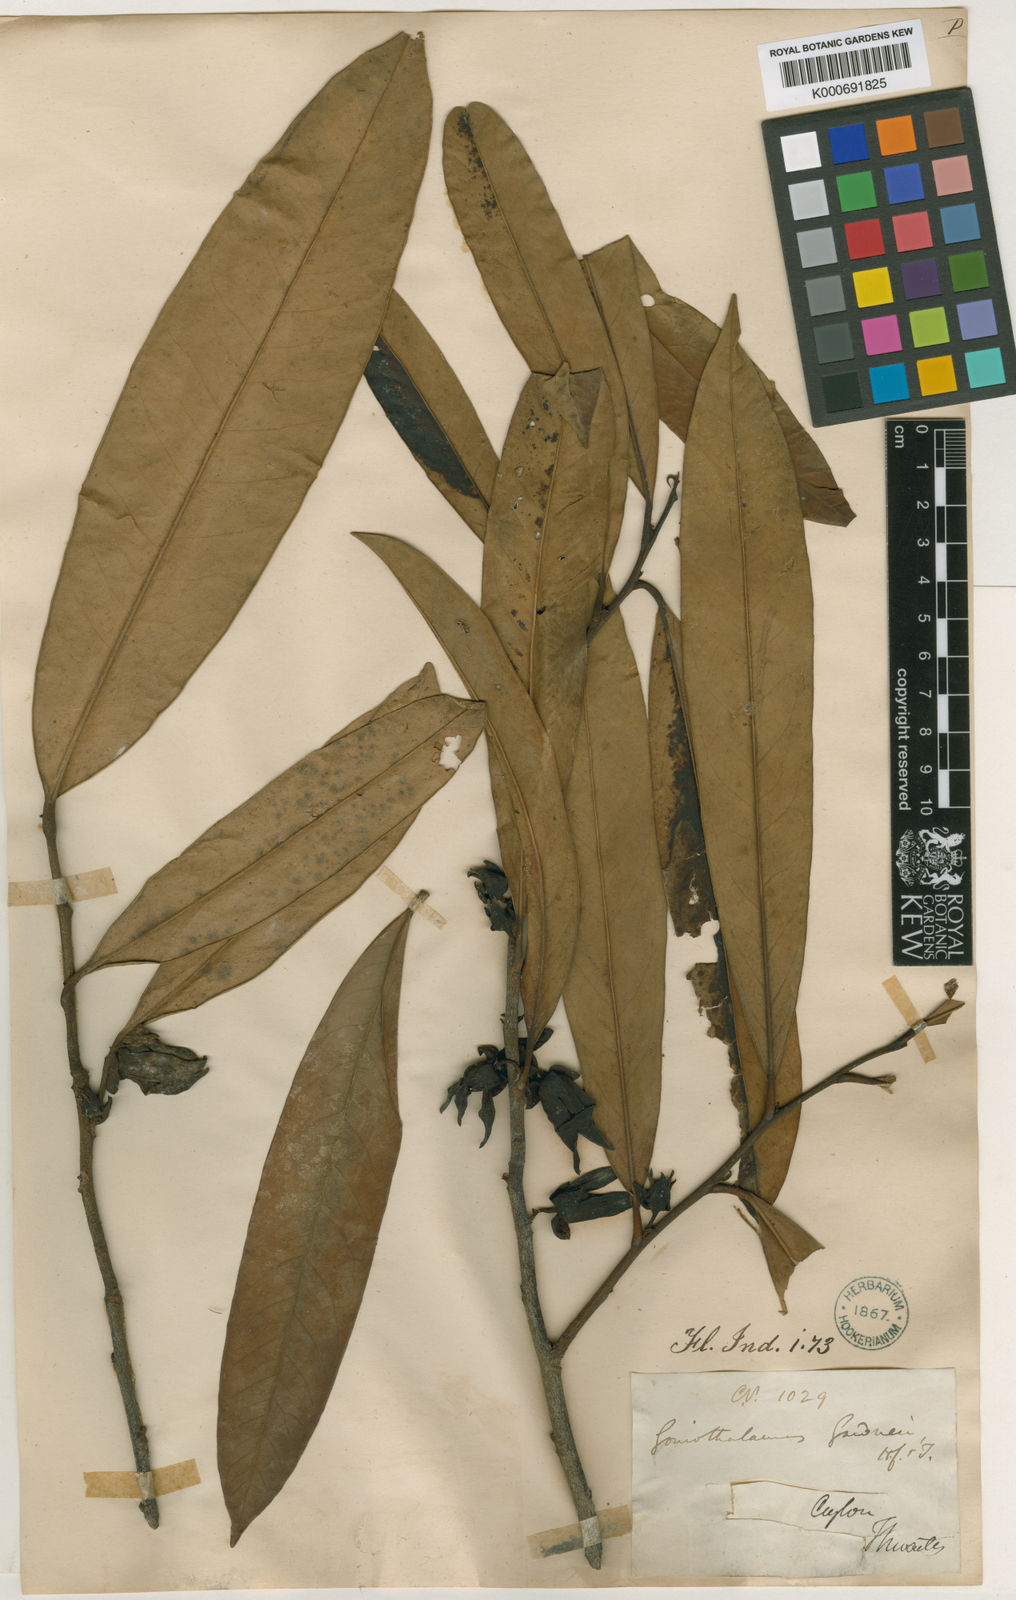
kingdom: Plantae
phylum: Tracheophyta
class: Magnoliopsida
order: Magnoliales
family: Annonaceae
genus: Goniothalamus
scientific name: Goniothalamus gardneri
